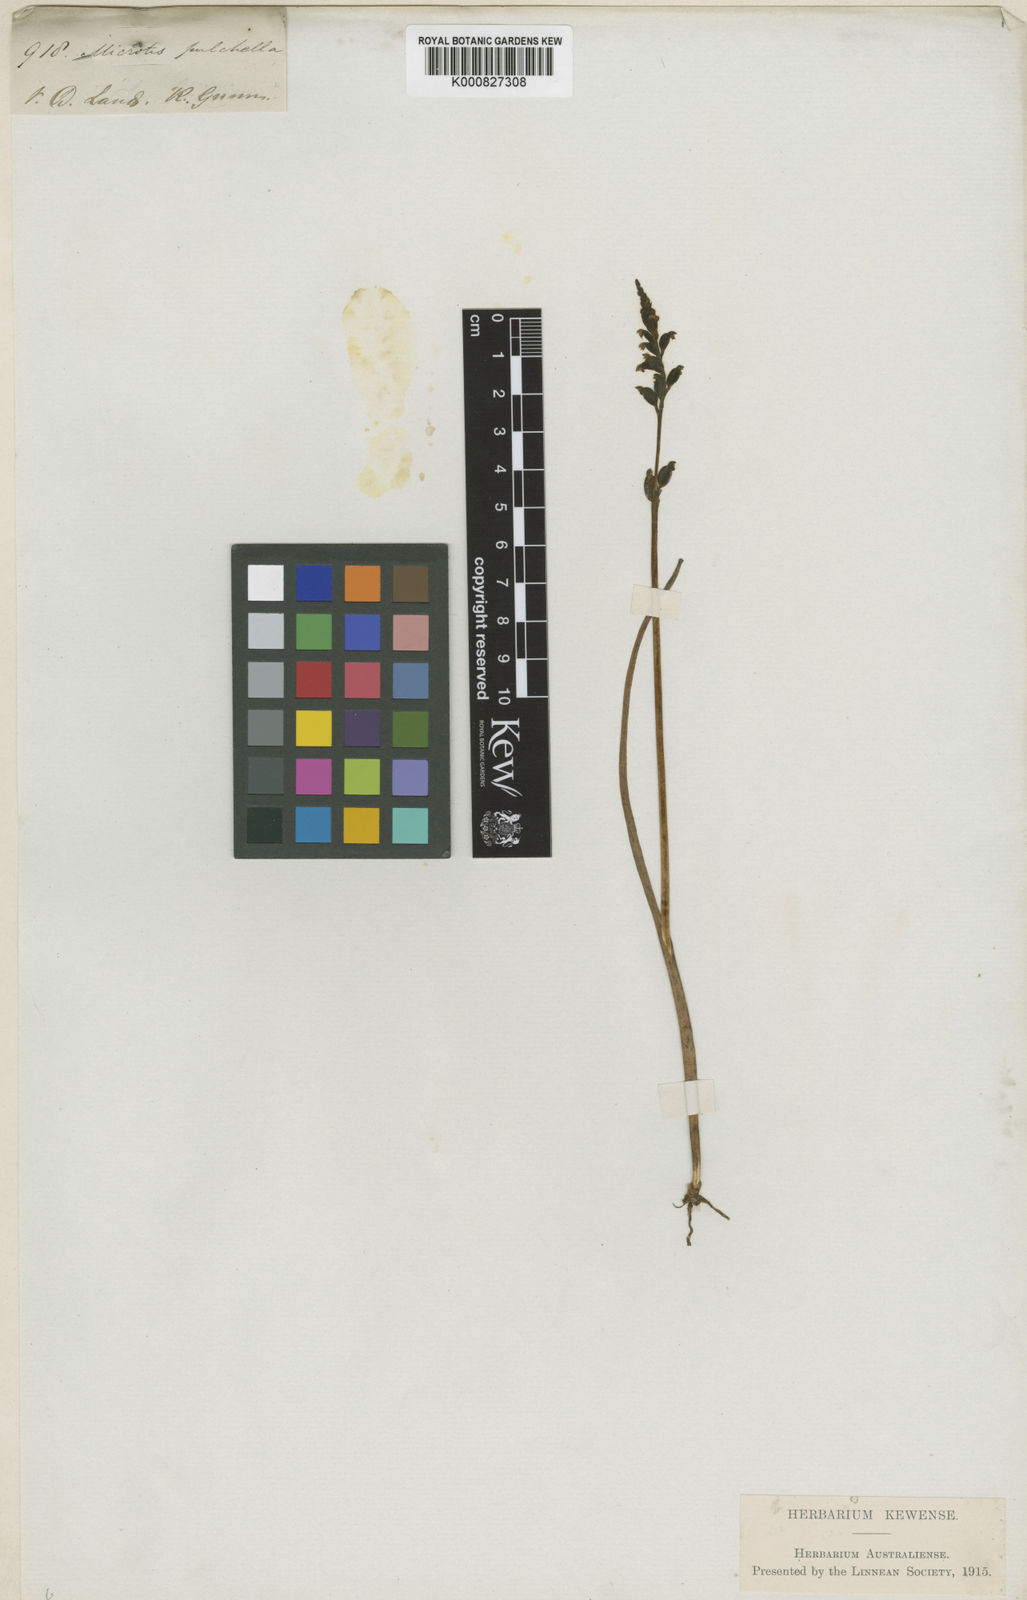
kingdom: Plantae
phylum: Tracheophyta
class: Liliopsida
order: Asparagales
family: Orchidaceae
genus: Microtis
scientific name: Microtis unifolia
